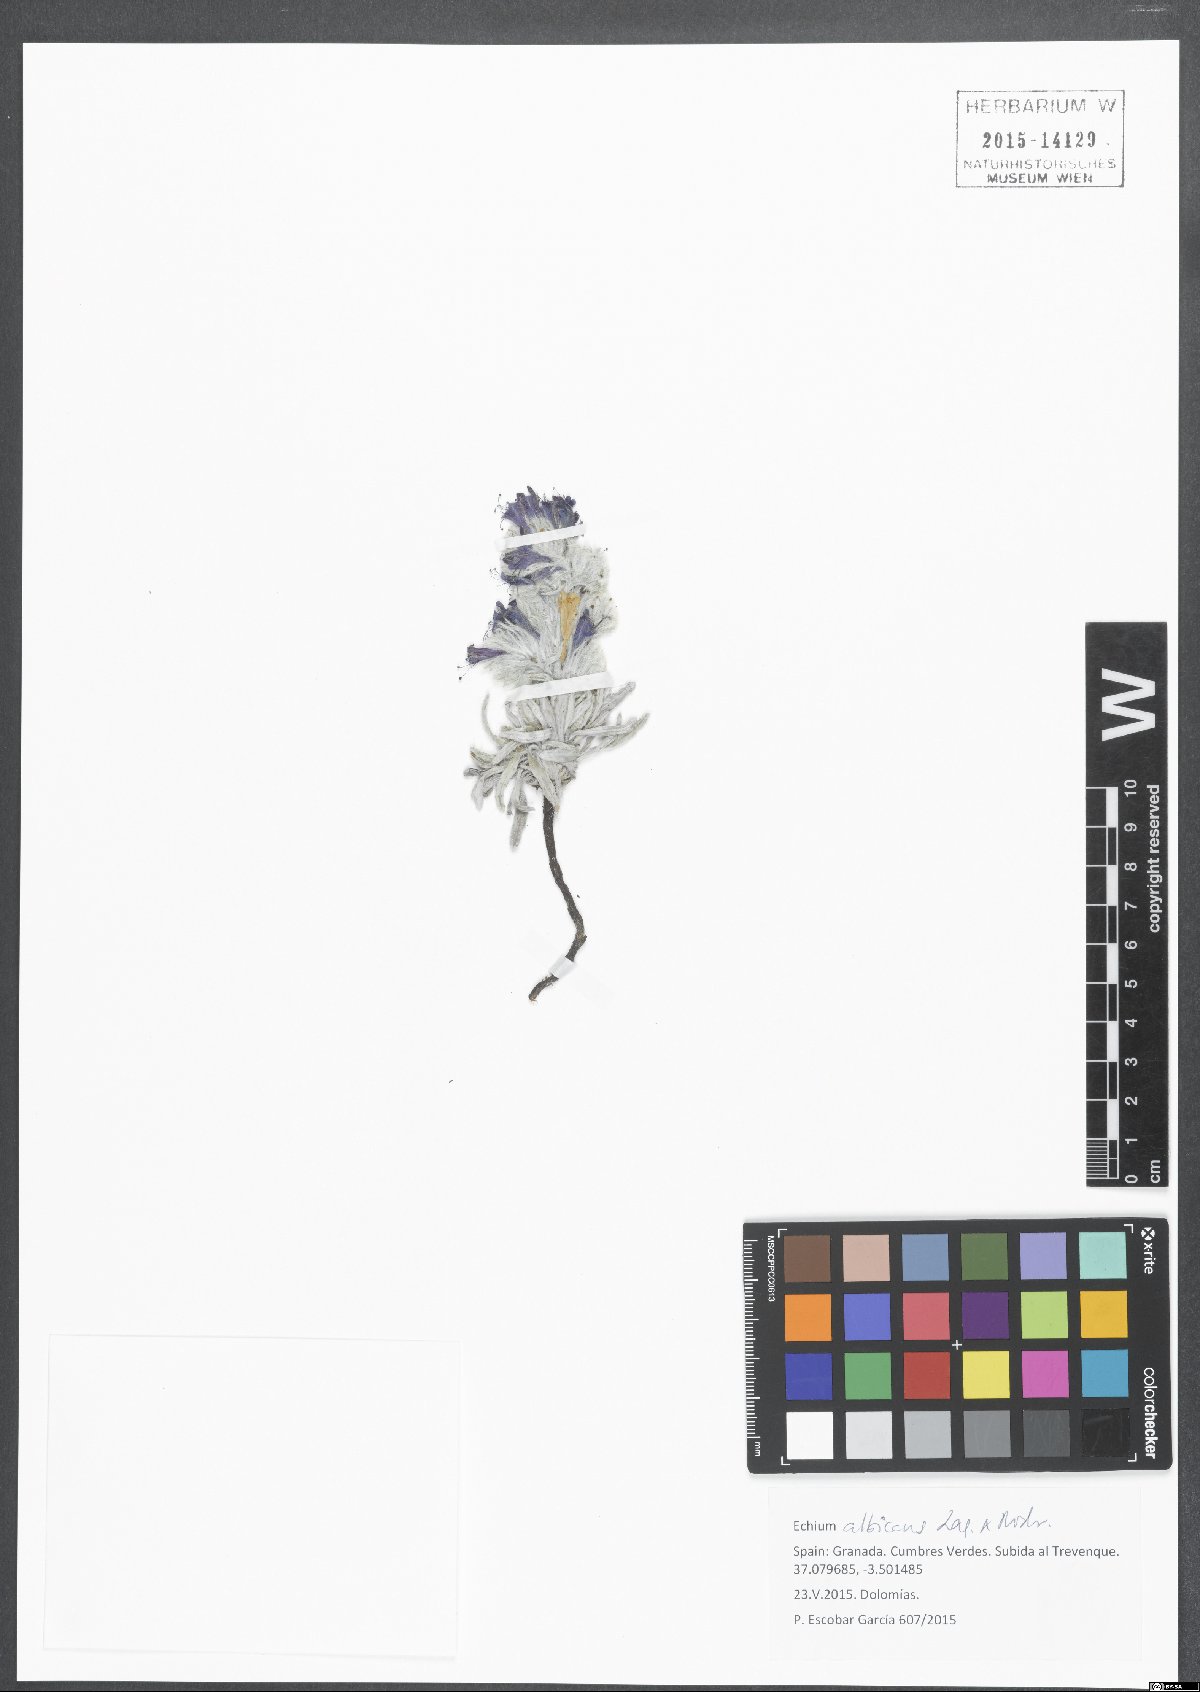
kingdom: Plantae
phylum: Tracheophyta
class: Magnoliopsida
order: Boraginales
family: Boraginaceae
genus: Echium
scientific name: Echium albicans
